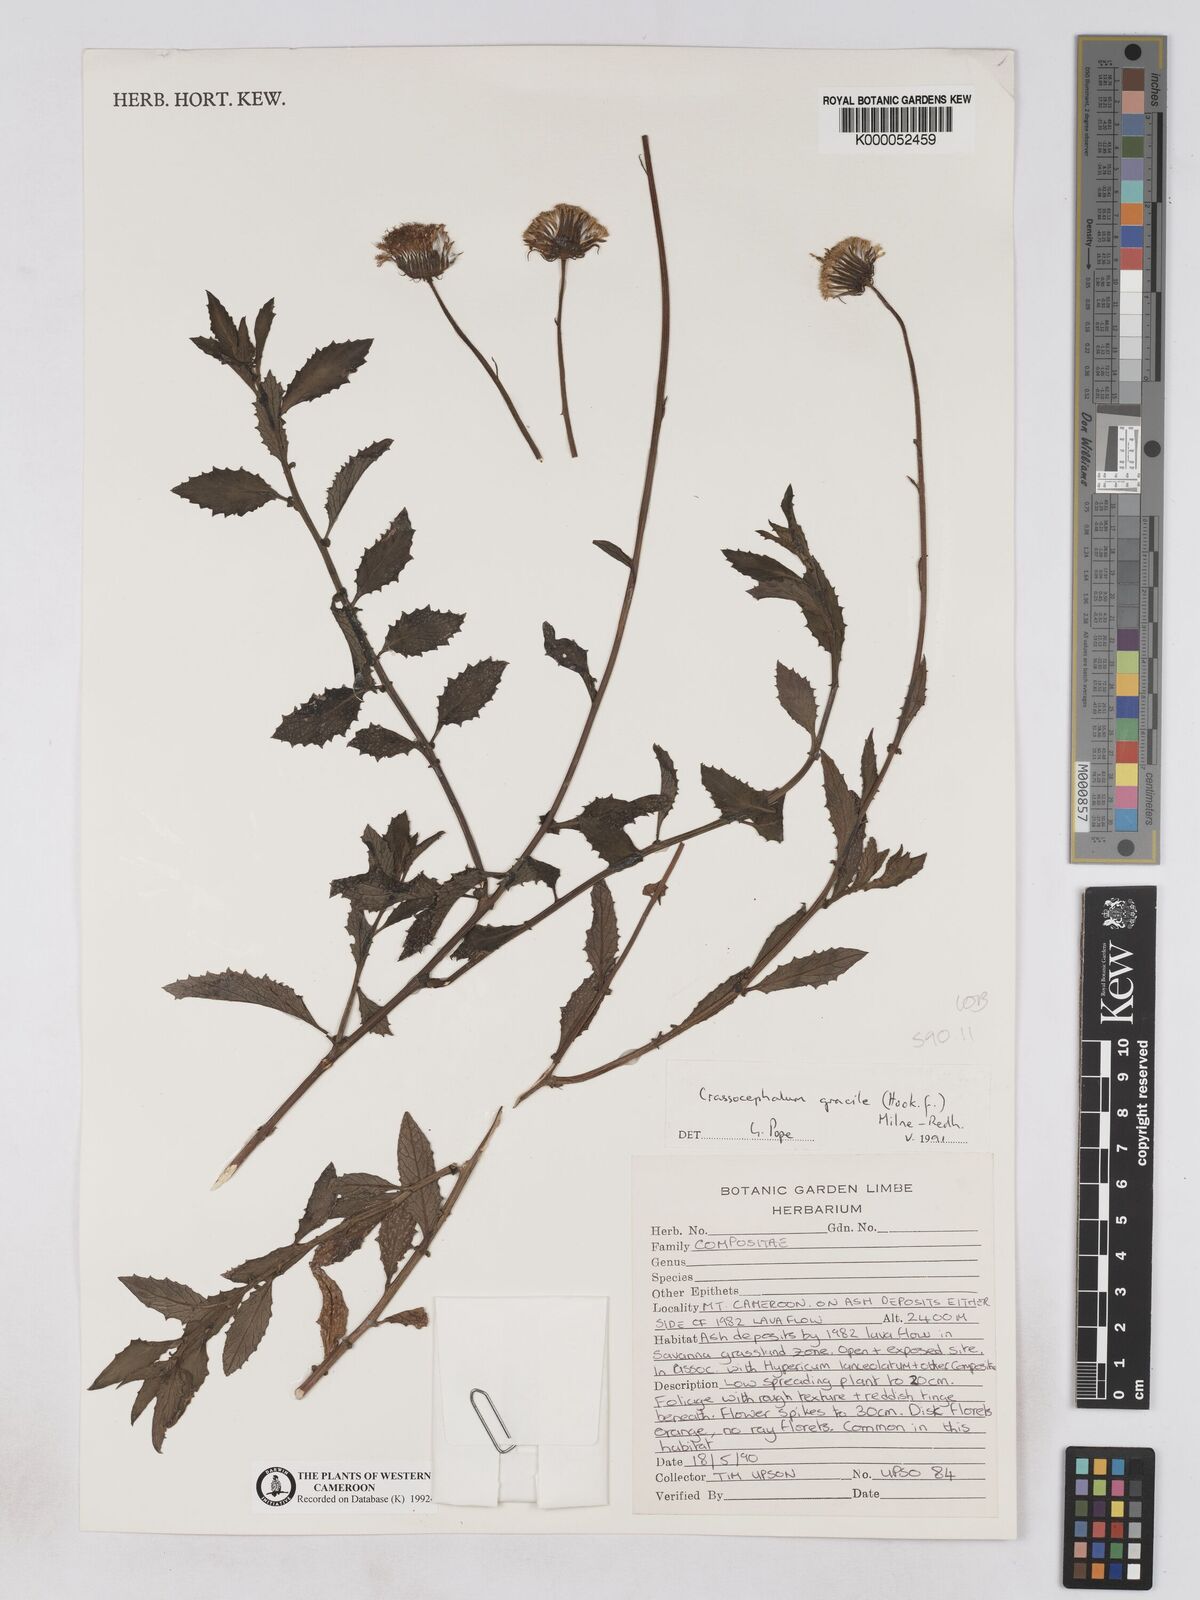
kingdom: Plantae
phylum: Tracheophyta
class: Magnoliopsida
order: Asterales
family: Asteraceae
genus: Crassocephalum
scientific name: Crassocephalum
